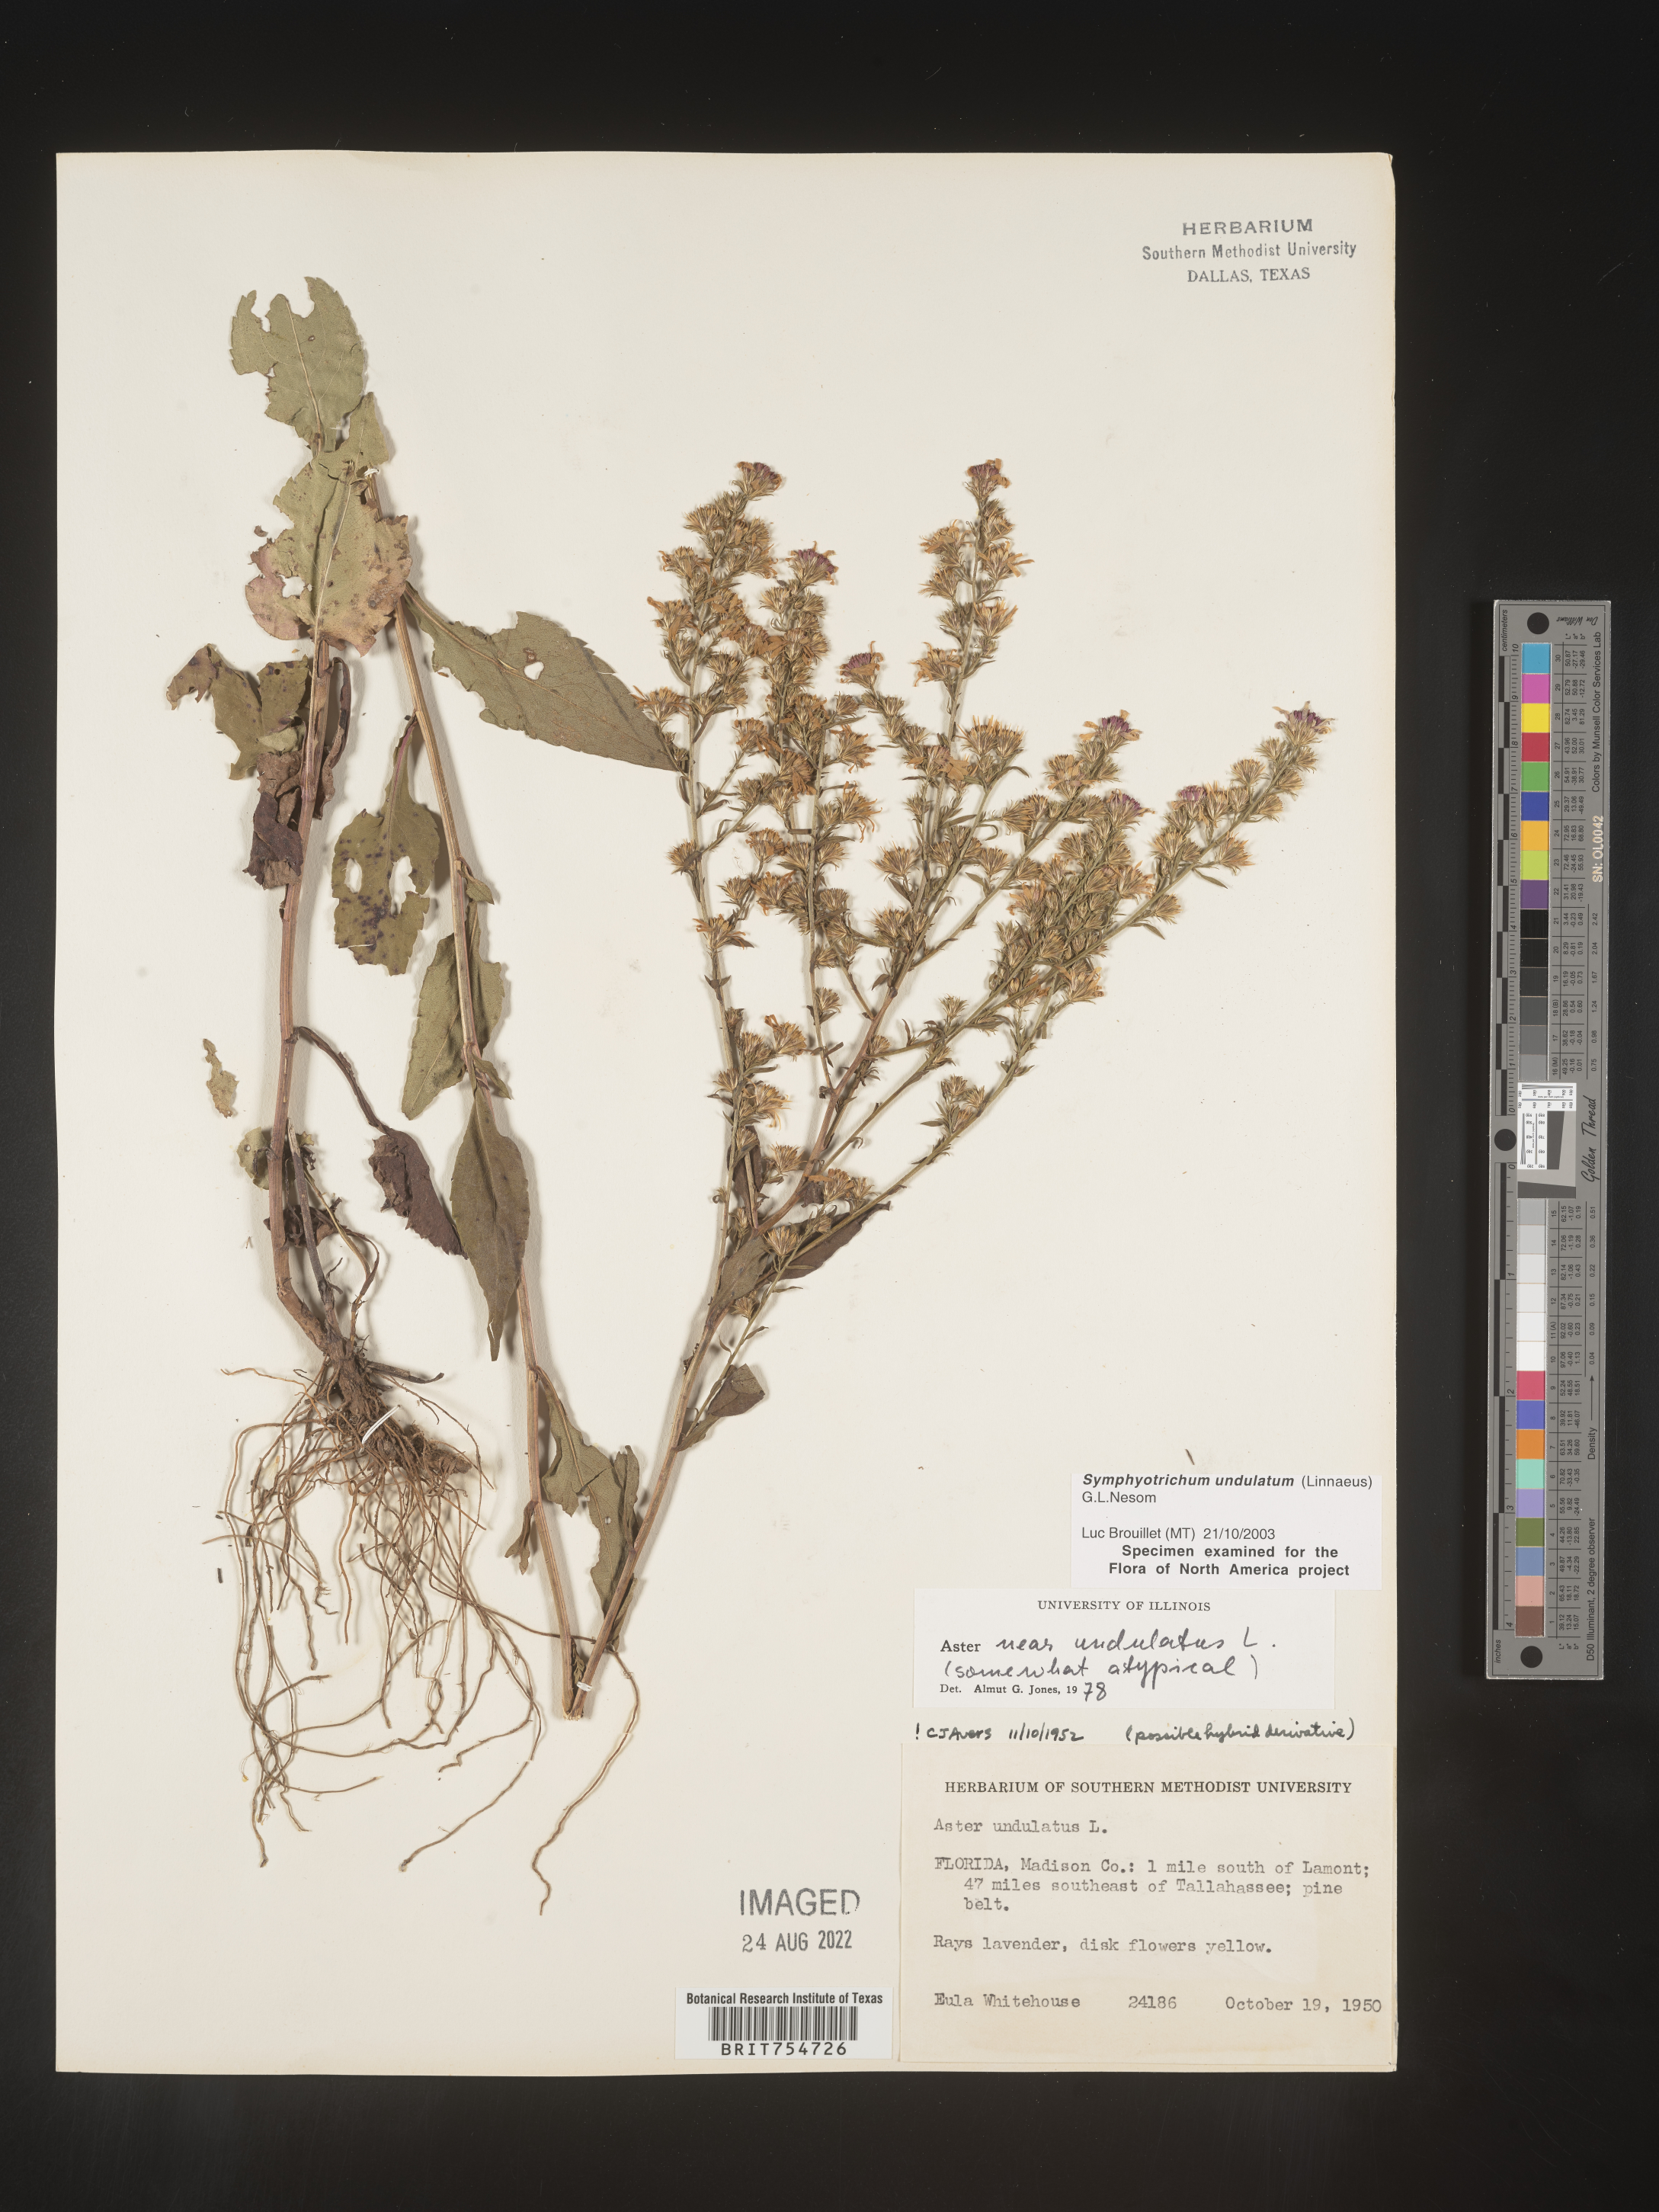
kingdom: Plantae
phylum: Tracheophyta
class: Magnoliopsida
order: Asterales
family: Asteraceae
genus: Symphyotrichum
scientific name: Symphyotrichum undulatum
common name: Clasping heart-leaf aster
